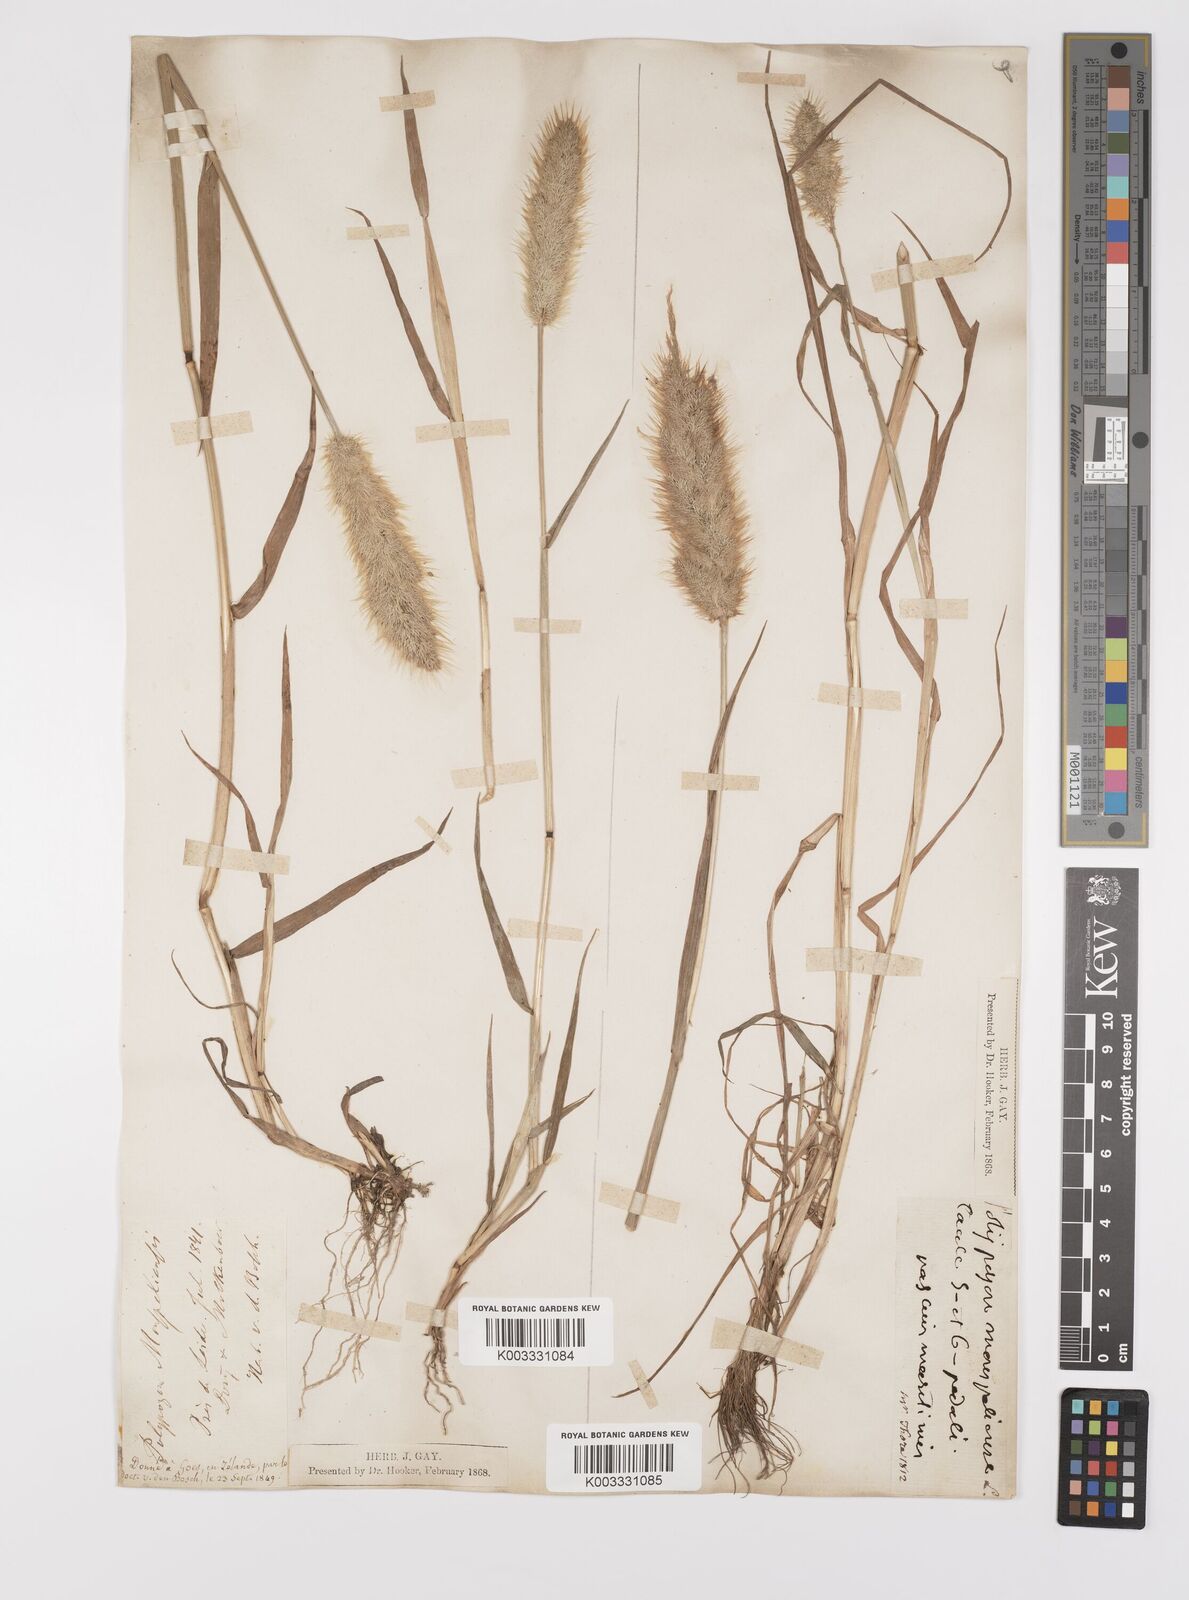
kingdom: Plantae
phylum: Tracheophyta
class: Liliopsida
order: Poales
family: Poaceae
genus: Polypogon
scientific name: Polypogon monspeliensis
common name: Annual rabbitsfoot grass
